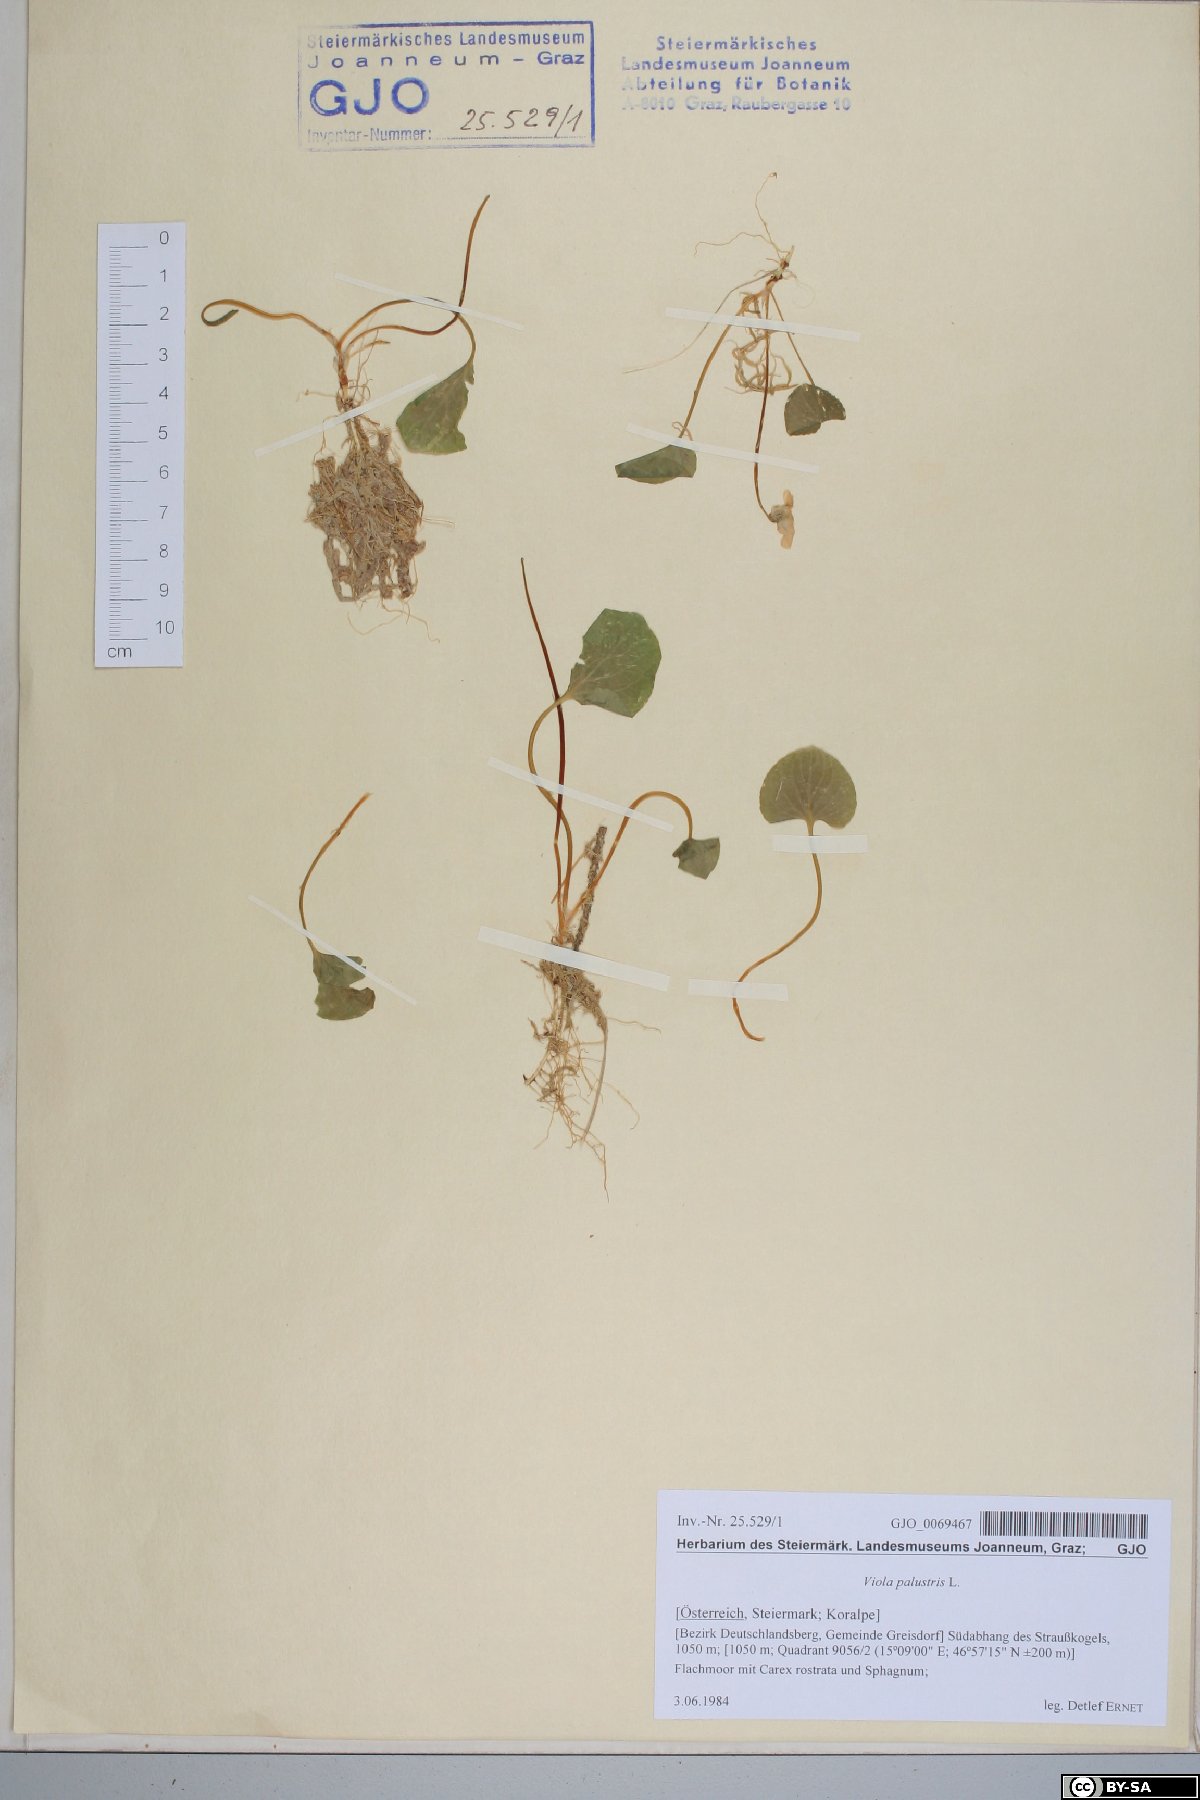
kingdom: Plantae
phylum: Tracheophyta
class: Magnoliopsida
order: Malpighiales
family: Violaceae
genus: Viola
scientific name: Viola palustris
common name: Marsh violet
